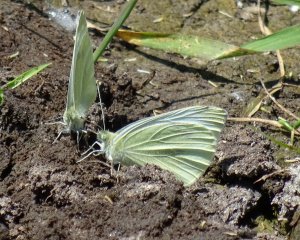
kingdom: Animalia
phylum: Arthropoda
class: Insecta
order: Lepidoptera
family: Pieridae
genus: Pieris
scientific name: Pieris rapae
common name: Cabbage White
